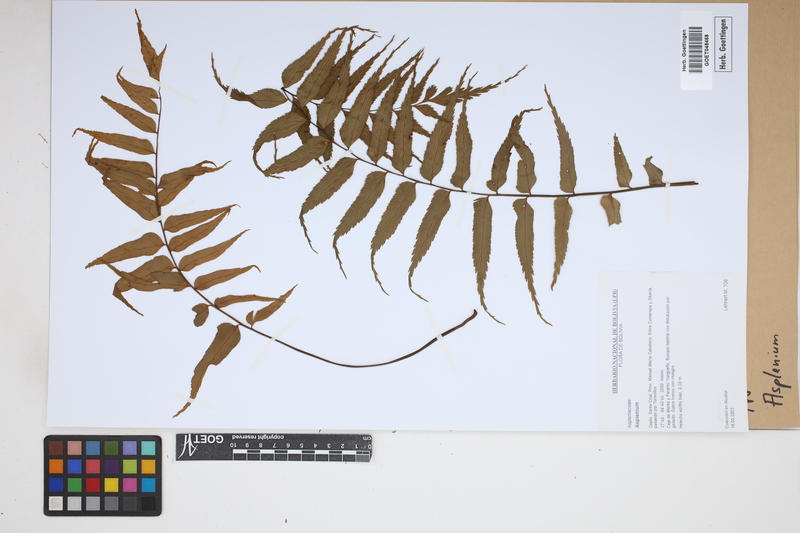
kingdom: Plantae
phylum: Tracheophyta
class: Polypodiopsida
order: Polypodiales
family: Aspleniaceae
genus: Asplenium
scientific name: Asplenium
